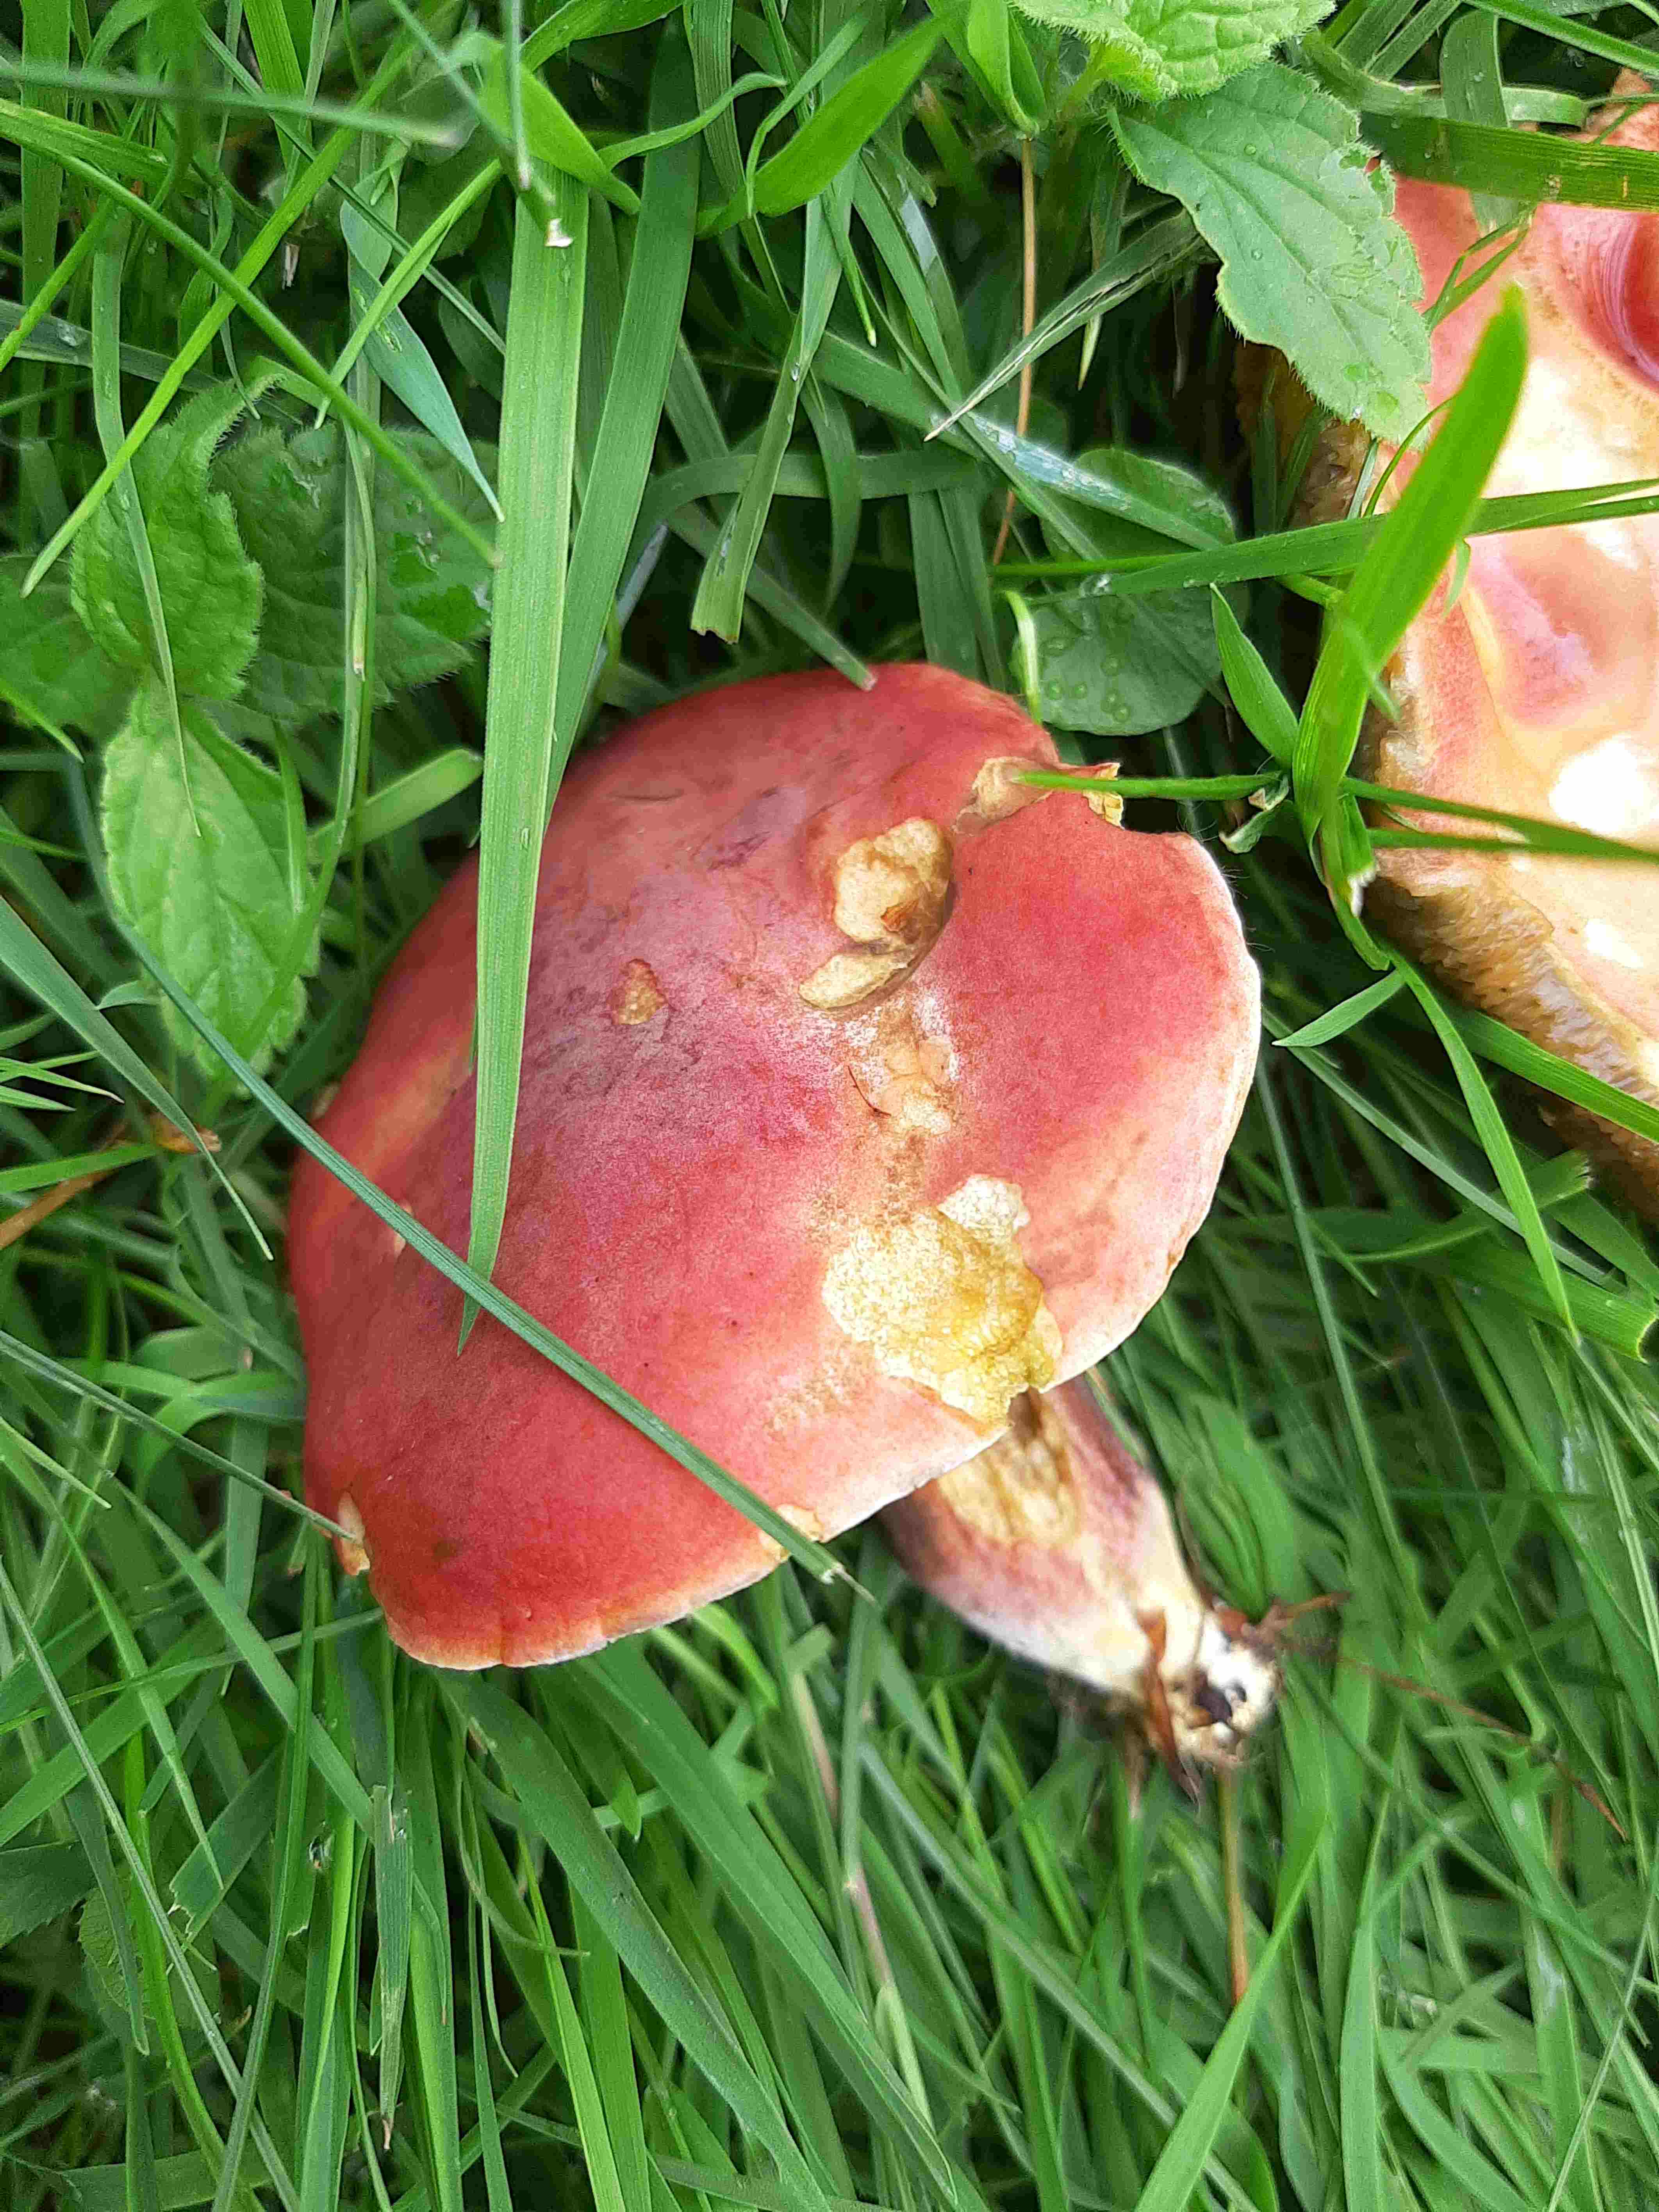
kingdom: Fungi
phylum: Basidiomycota
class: Agaricomycetes
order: Boletales
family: Boletaceae
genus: Hortiboletus
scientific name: Hortiboletus rubellus
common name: blodrød rørhat
